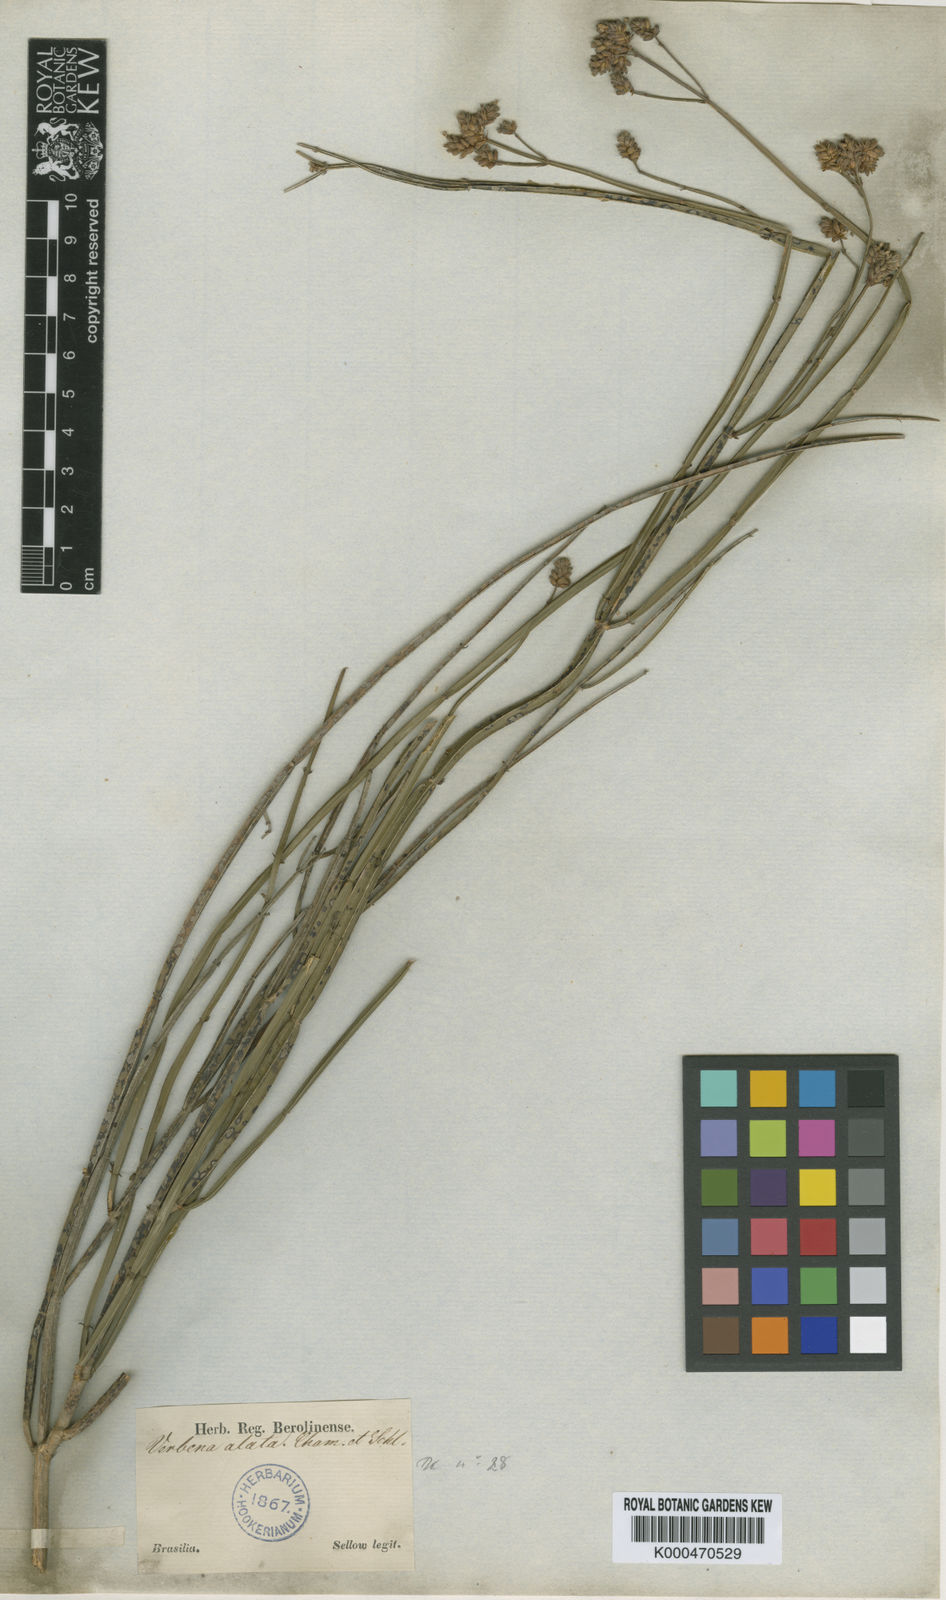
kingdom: Plantae
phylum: Tracheophyta
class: Magnoliopsida
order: Lamiales
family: Verbenaceae
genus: Verbena
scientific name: Verbena alata
